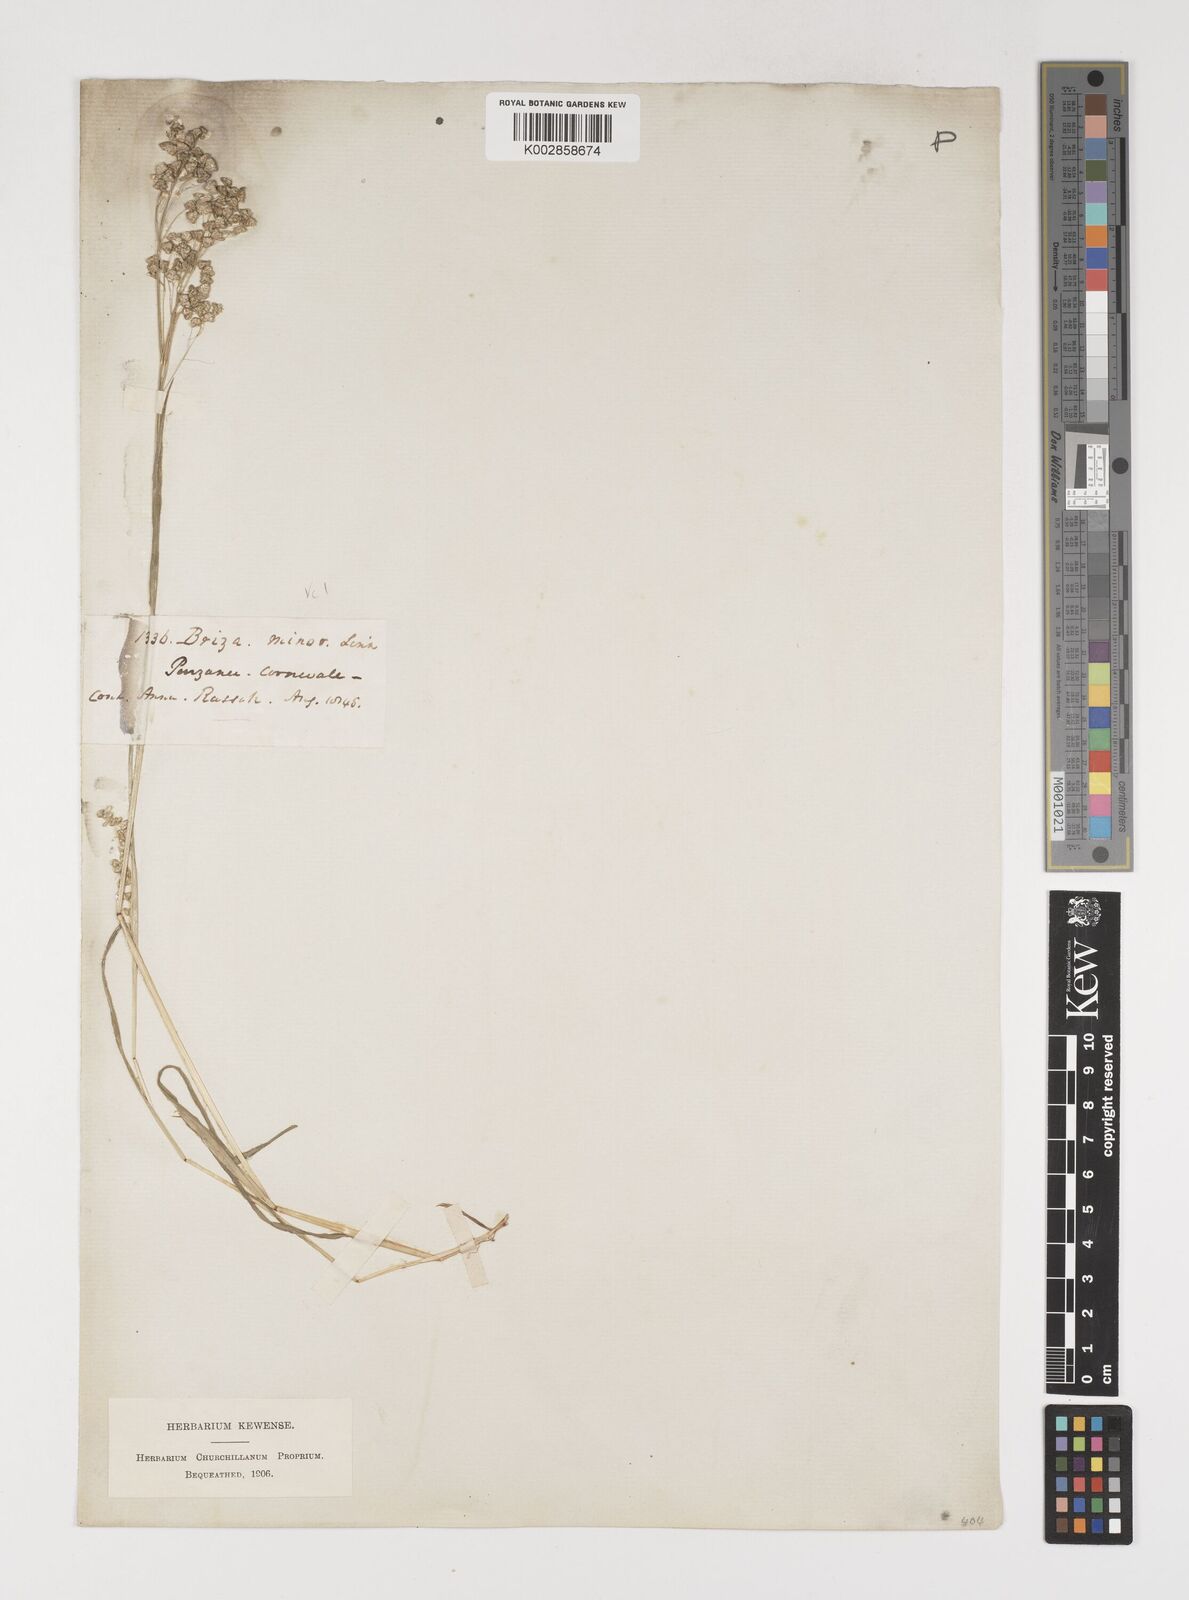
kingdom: Plantae
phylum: Tracheophyta
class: Liliopsida
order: Poales
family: Poaceae
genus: Briza
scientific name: Briza minor
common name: Lesser quaking-grass
